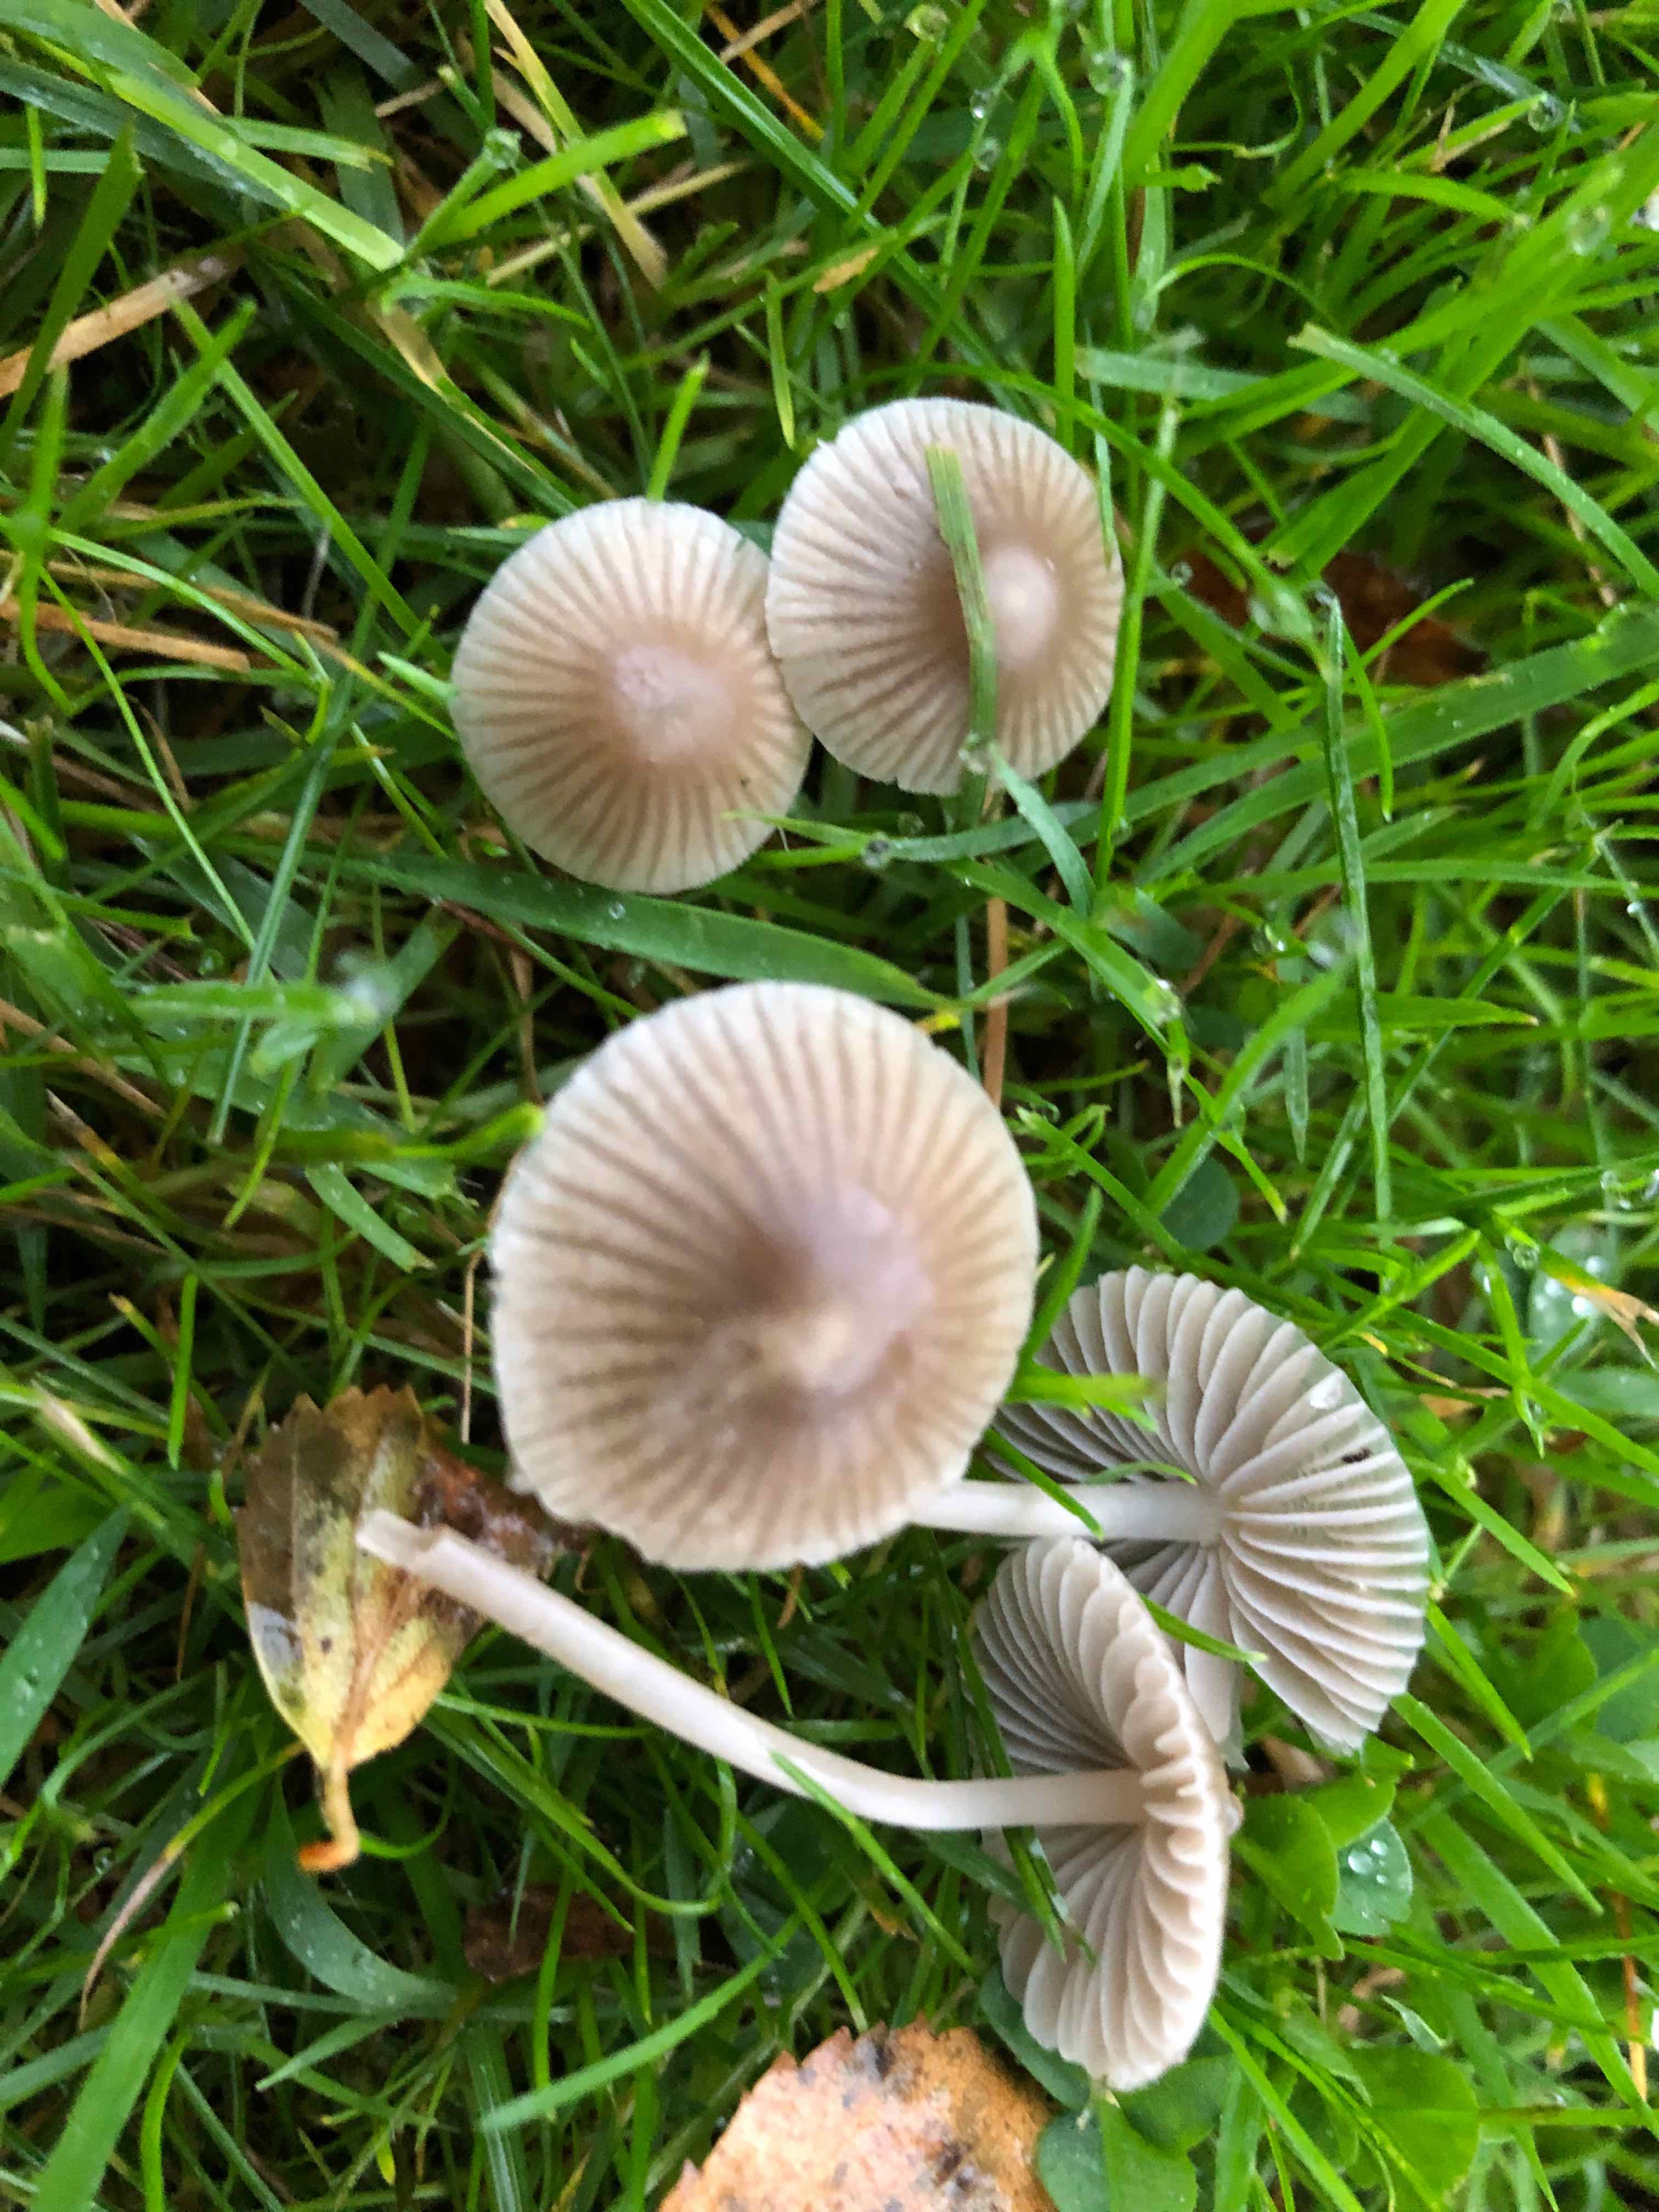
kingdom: Fungi
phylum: Basidiomycota
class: Agaricomycetes
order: Agaricales
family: Mycenaceae
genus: Mycena
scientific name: Mycena aetites
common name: plæne-huesvamp
